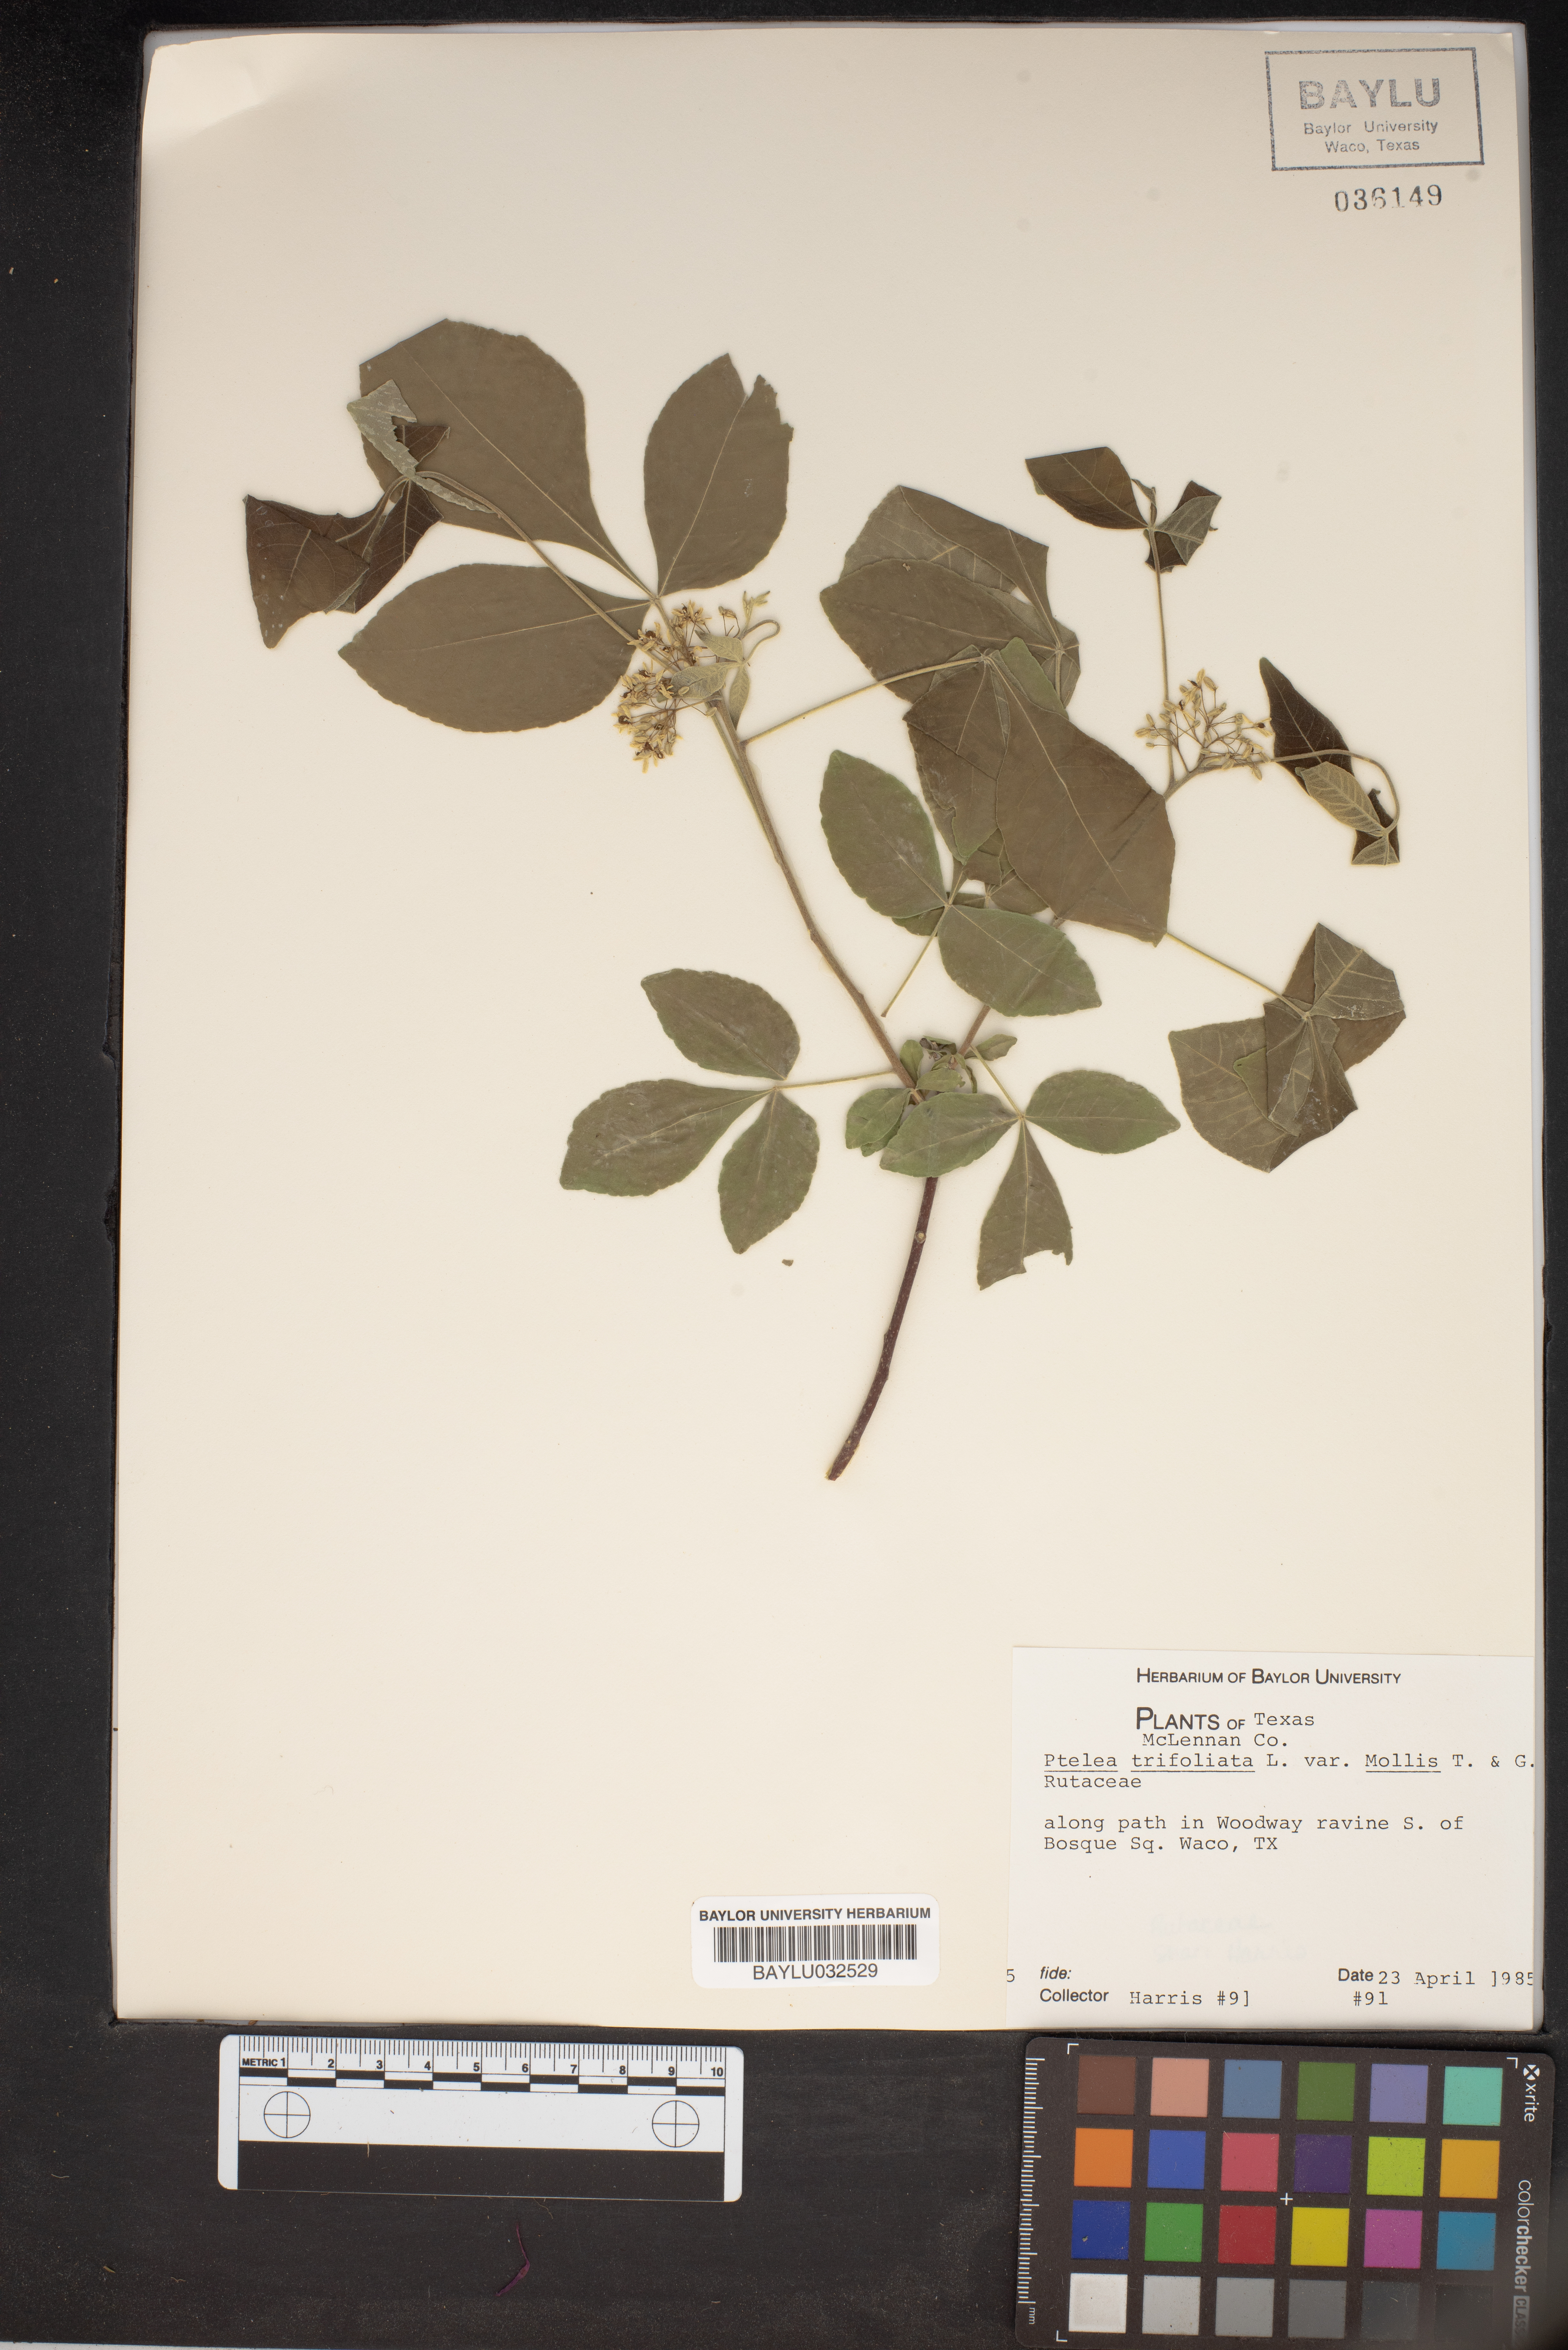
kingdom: Plantae
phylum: Tracheophyta
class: Magnoliopsida
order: Sapindales
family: Rutaceae
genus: Ptelea
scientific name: Ptelea trifoliata
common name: Common hop-tree
